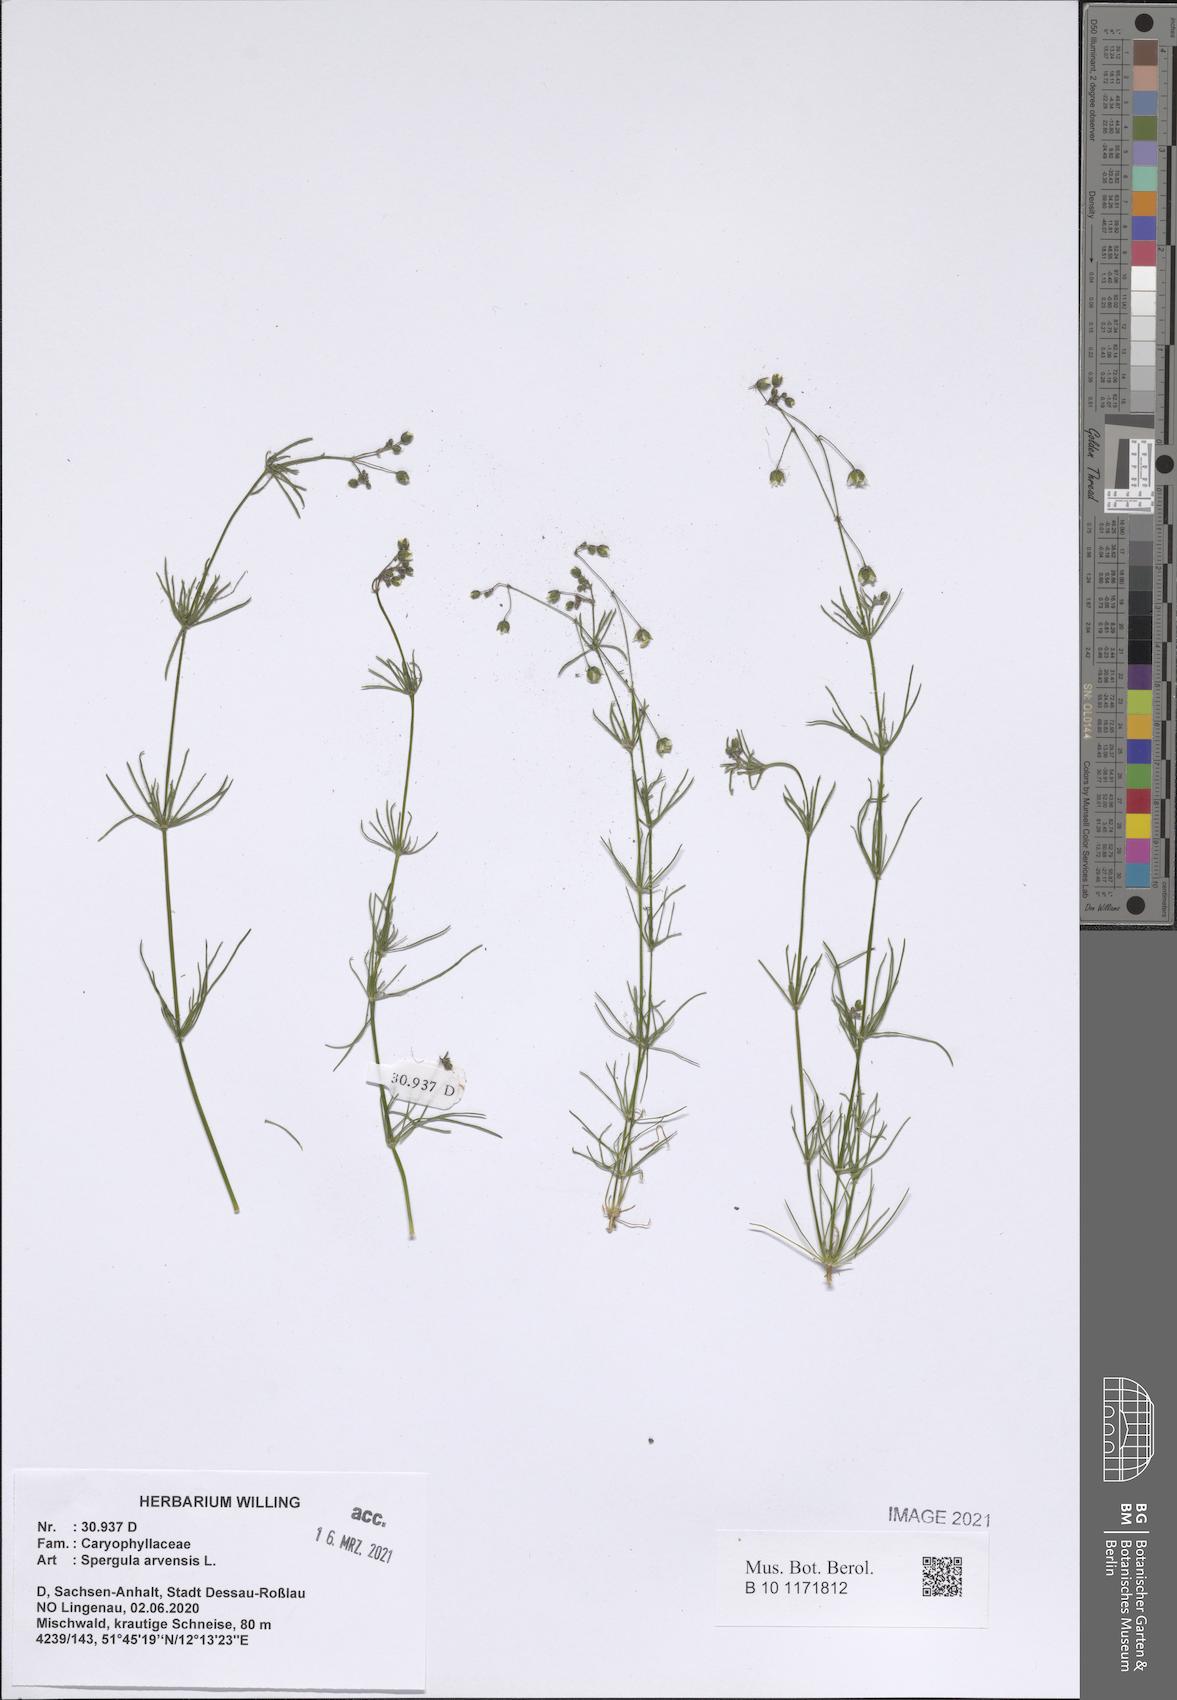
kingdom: Plantae
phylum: Tracheophyta
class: Magnoliopsida
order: Caryophyllales
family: Caryophyllaceae
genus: Spergula
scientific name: Spergula arvensis
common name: Corn spurrey
